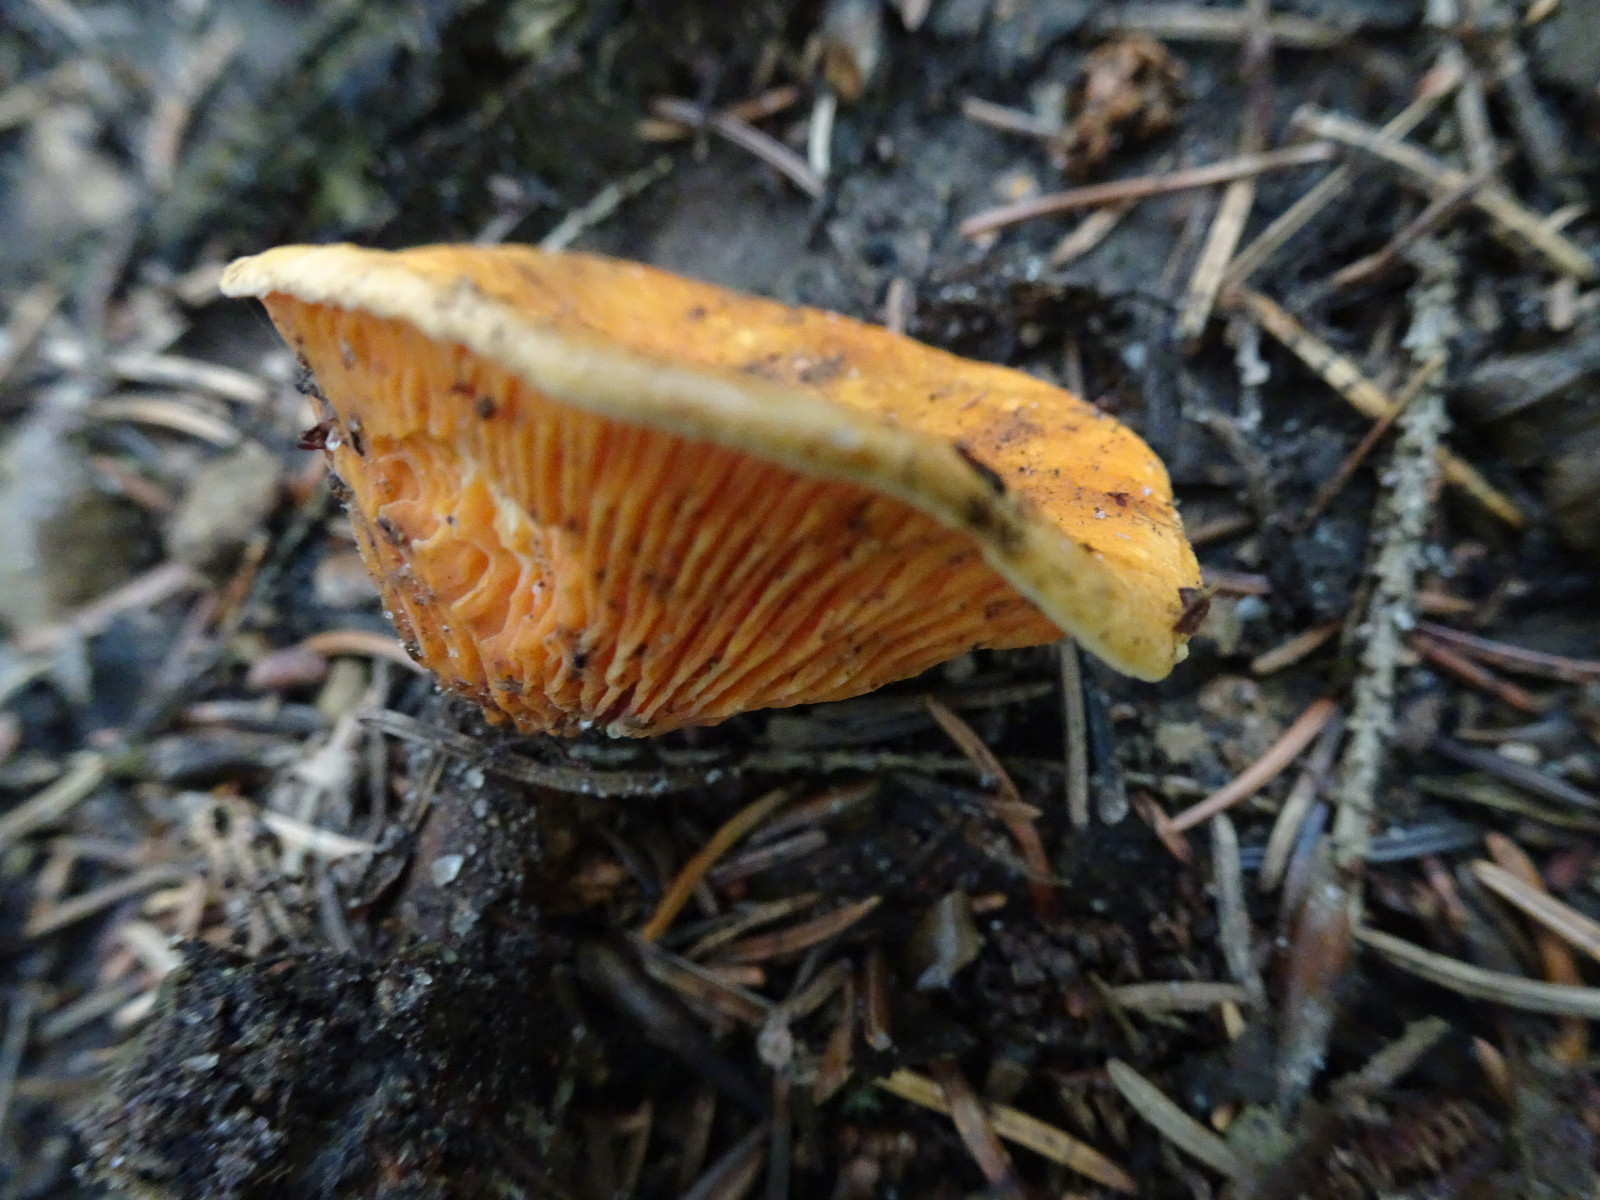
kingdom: Fungi
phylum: Basidiomycota
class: Agaricomycetes
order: Boletales
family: Hygrophoropsidaceae
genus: Hygrophoropsis
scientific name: Hygrophoropsis aurantiaca
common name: almindelig orangekantarel
